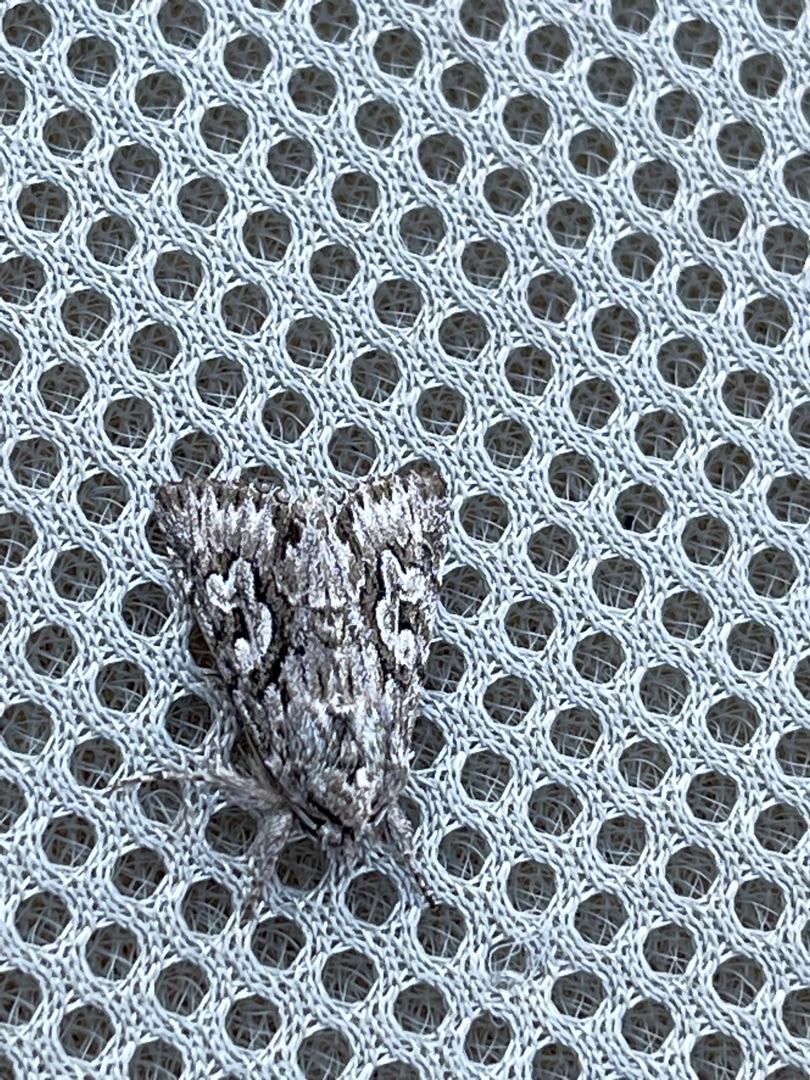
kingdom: Animalia
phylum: Arthropoda
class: Insecta
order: Lepidoptera
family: Noctuidae
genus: Xylocampa
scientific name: Xylocampa areola
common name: Gedeblad-ugle
